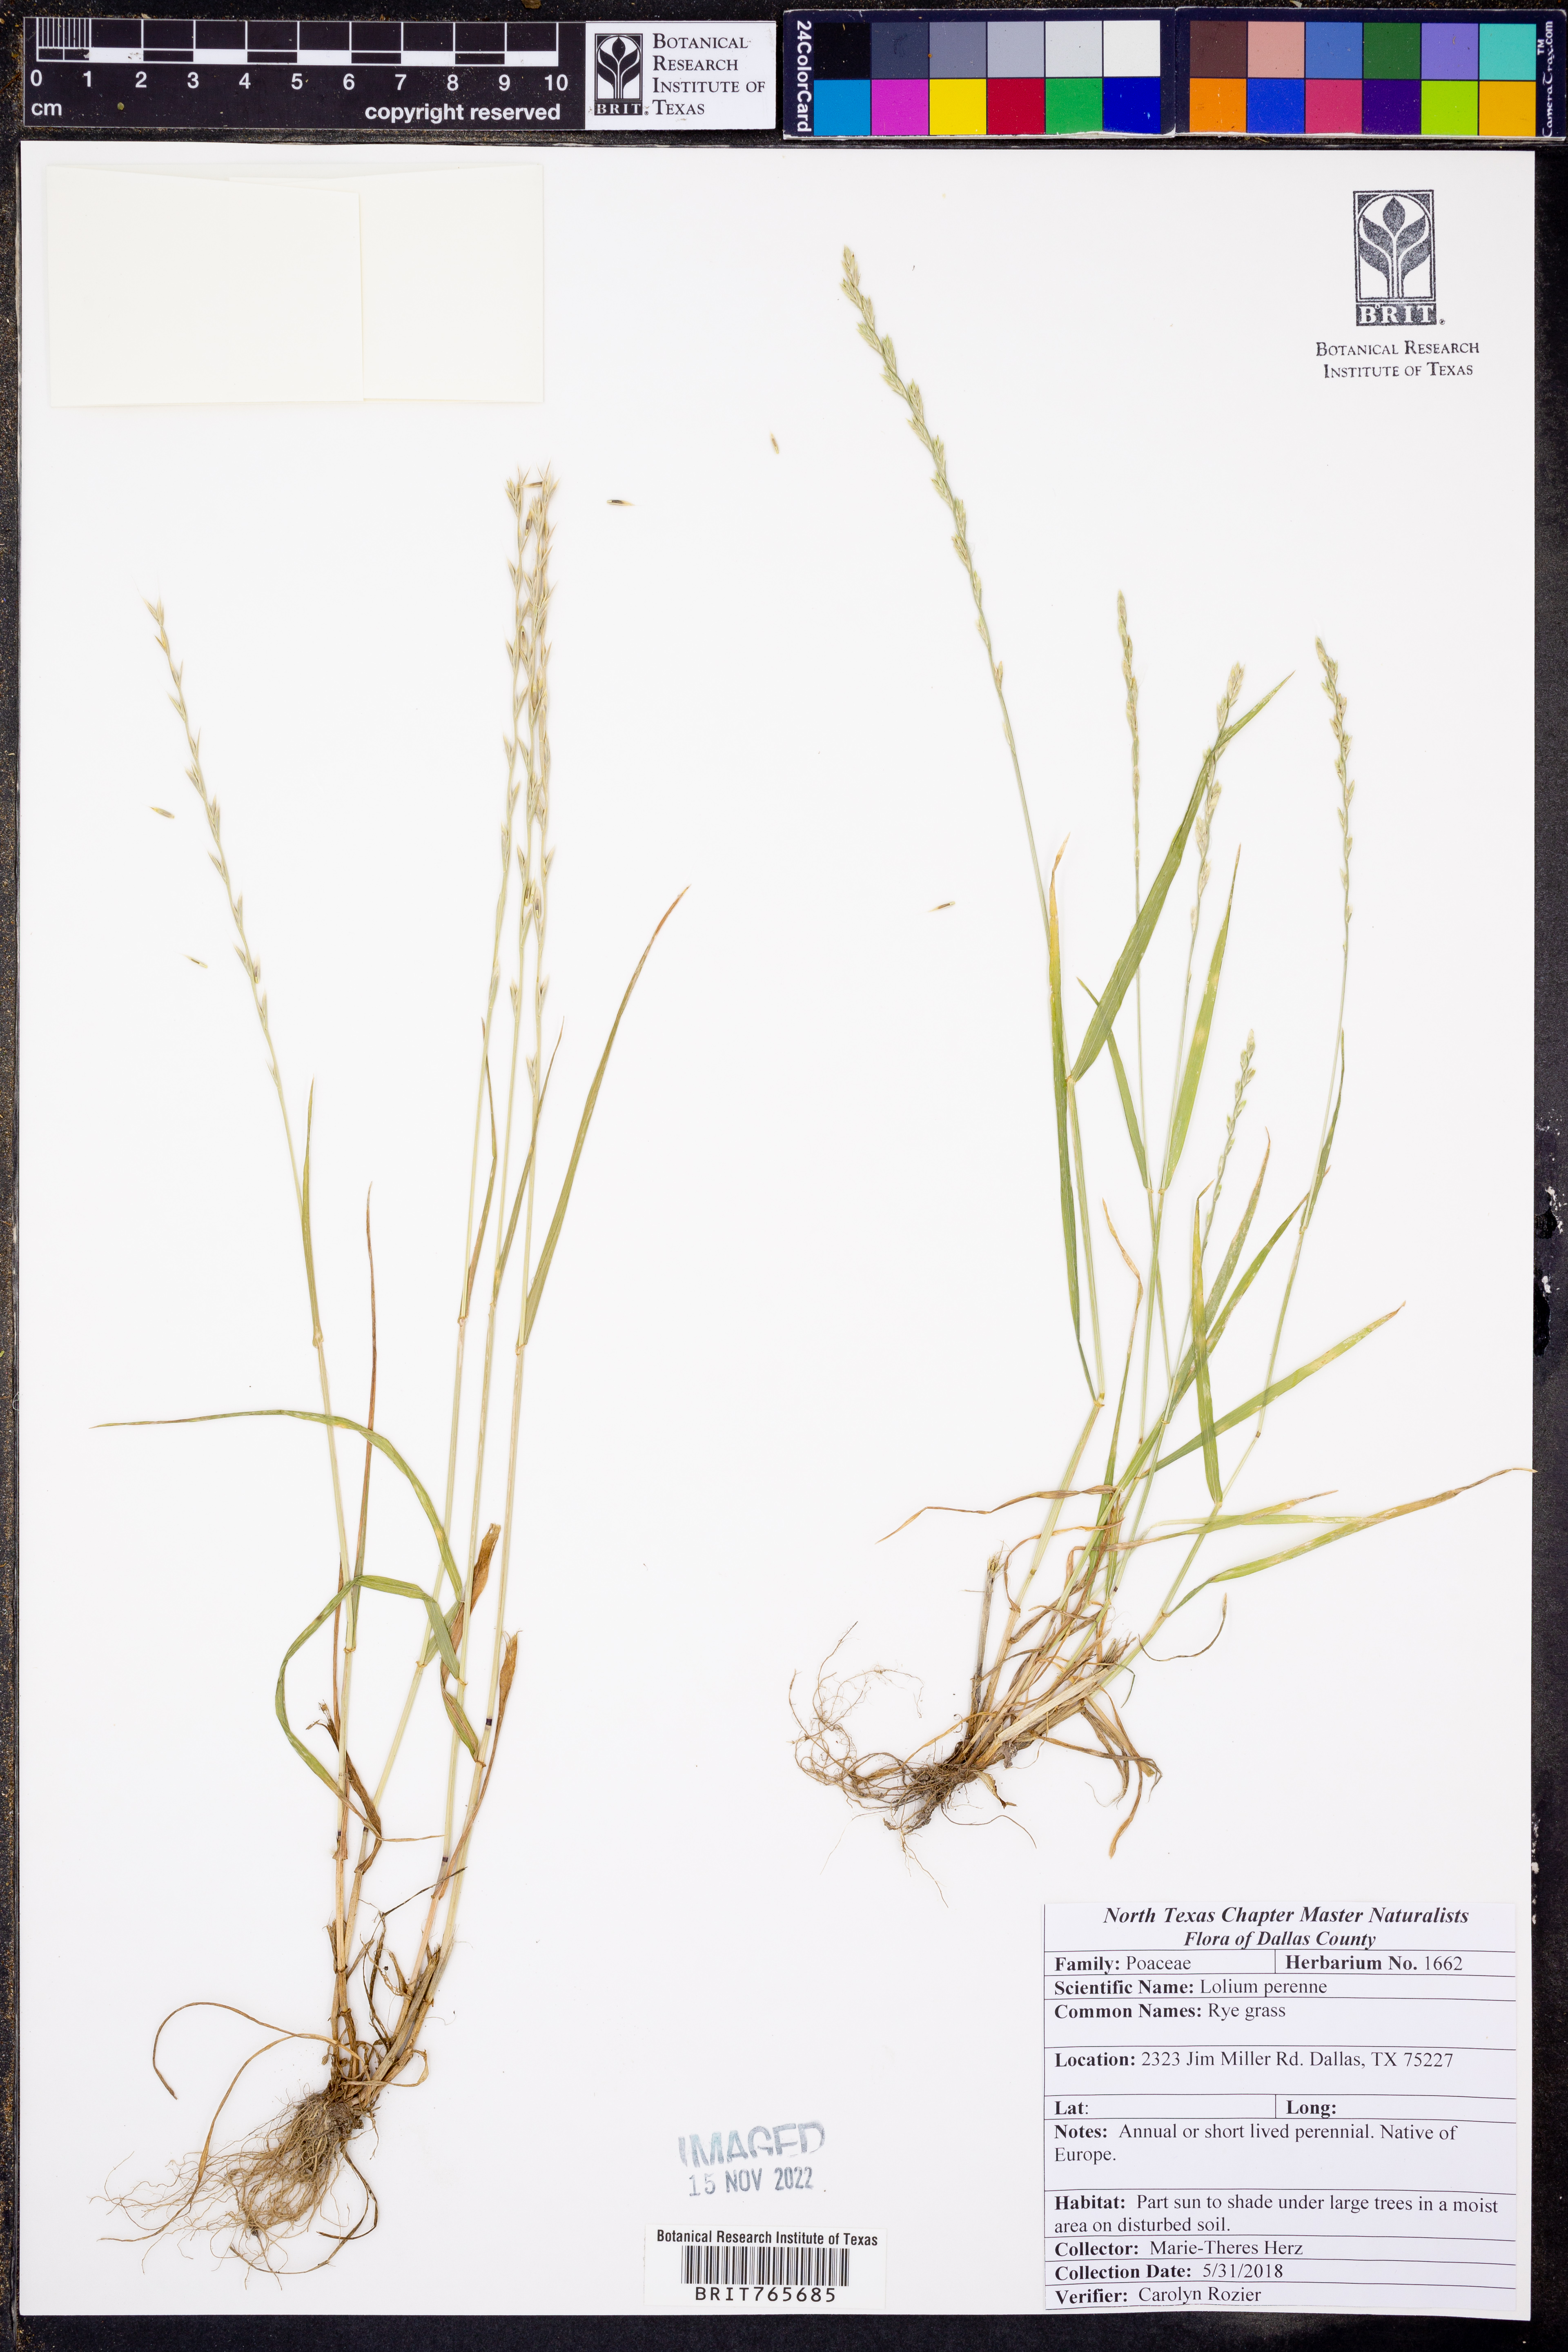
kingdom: Plantae
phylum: Tracheophyta
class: Liliopsida
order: Poales
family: Poaceae
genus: Lolium
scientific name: Lolium perenne
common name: Perennial ryegrass
